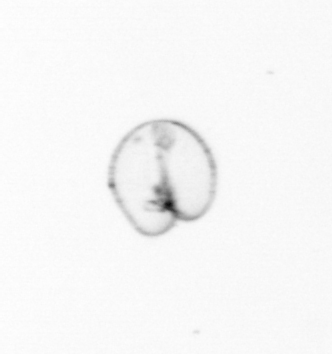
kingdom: Chromista
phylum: Myzozoa
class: Dinophyceae
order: Noctilucales
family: Noctilucaceae
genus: Noctiluca
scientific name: Noctiluca scintillans
